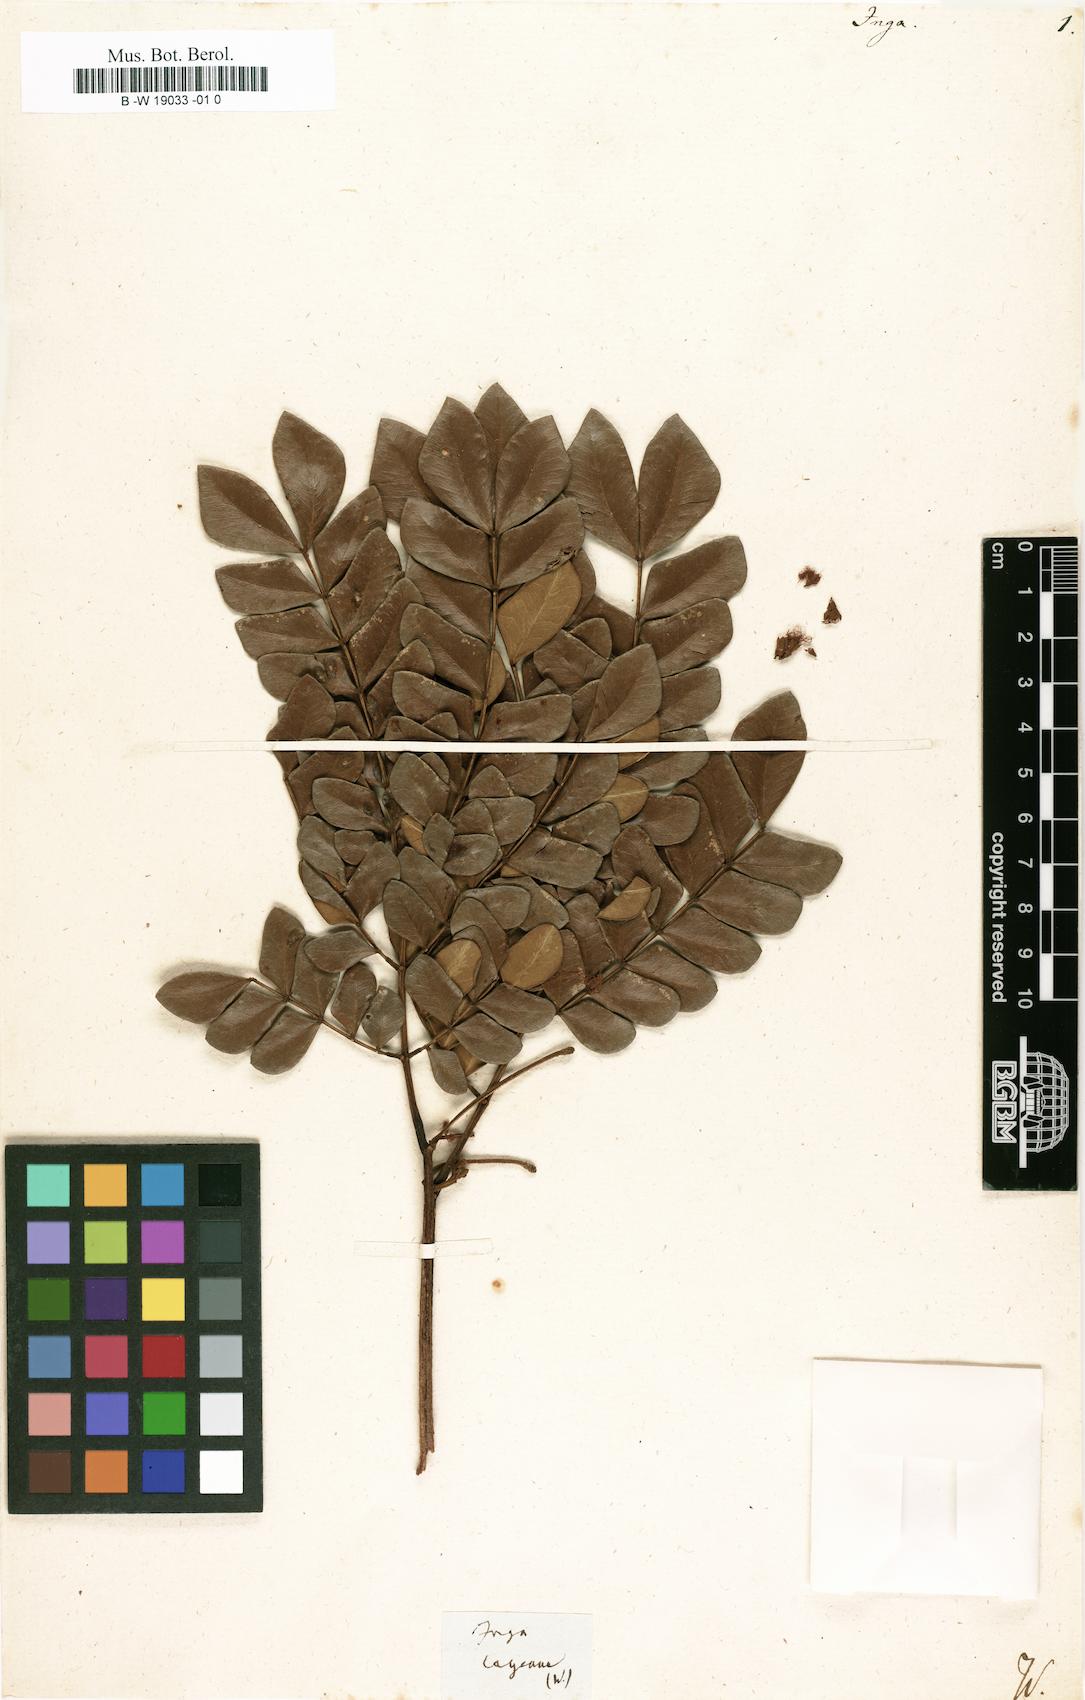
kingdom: Plantae
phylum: Tracheophyta
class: Magnoliopsida
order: Fabales
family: Fabaceae
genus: Inga
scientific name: Inga
